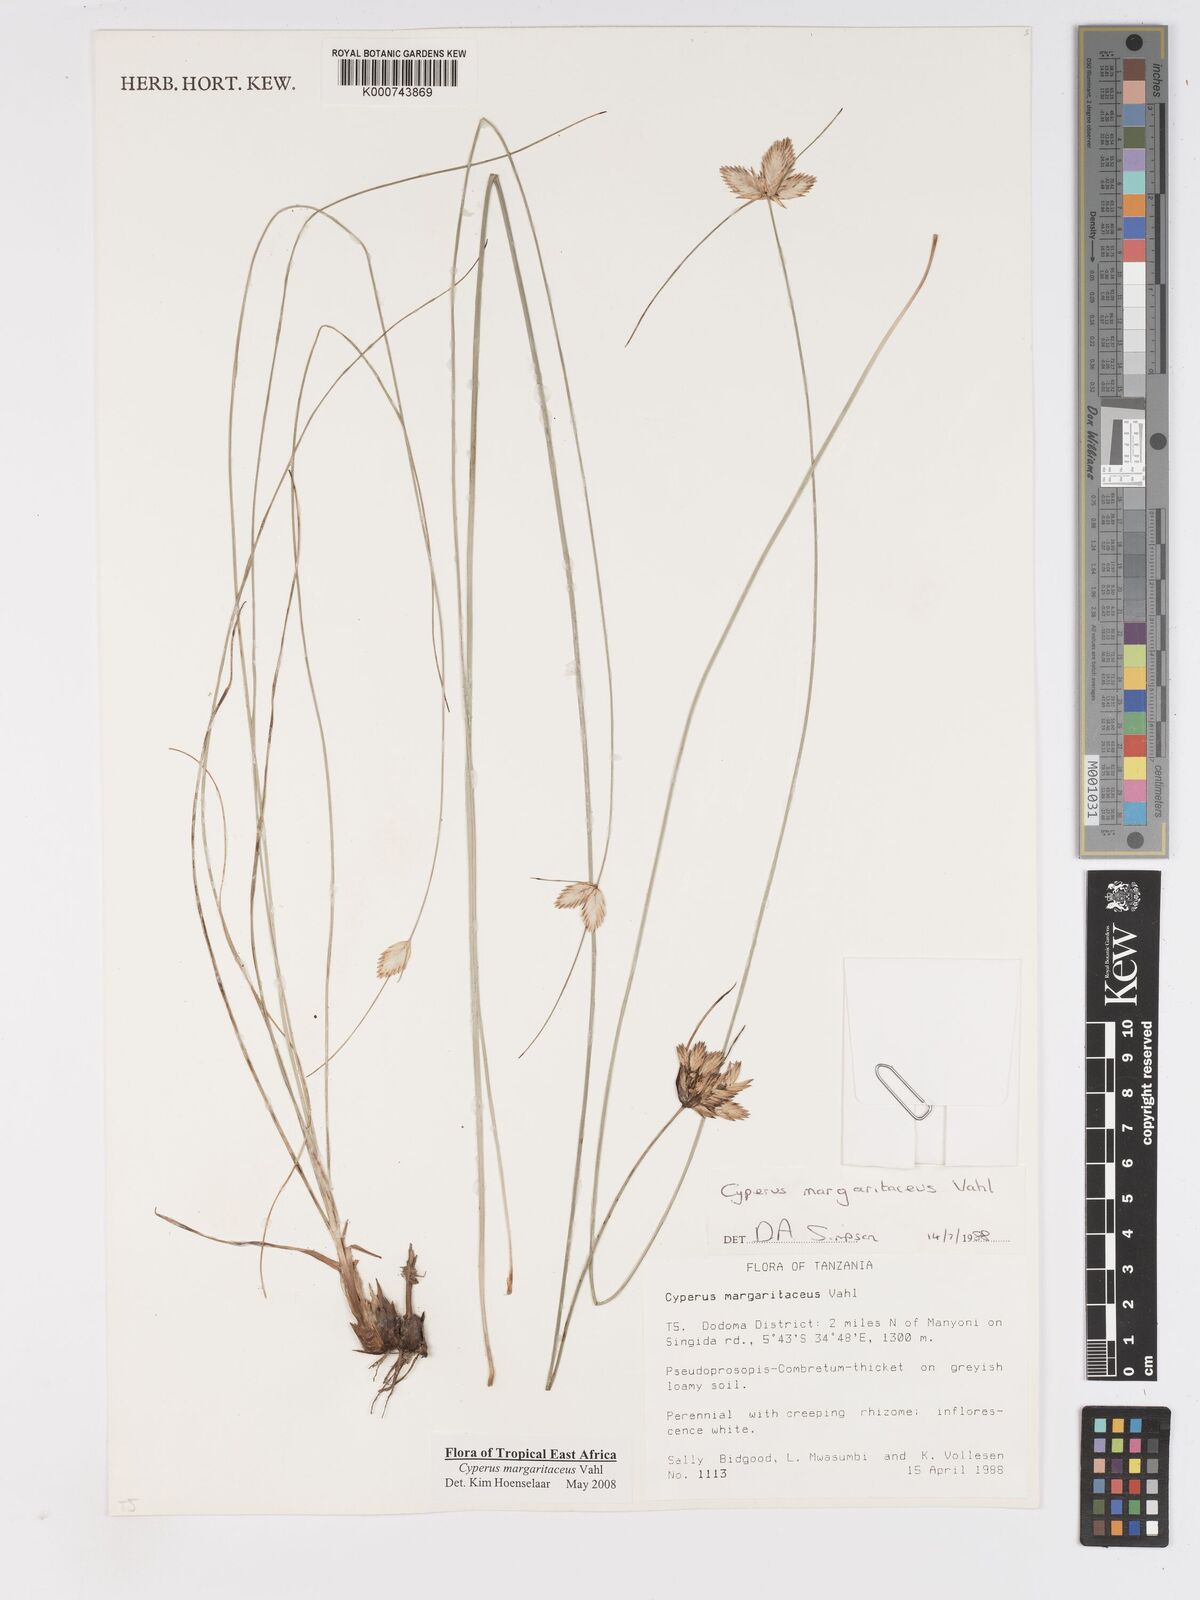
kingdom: Plantae
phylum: Tracheophyta
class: Liliopsida
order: Poales
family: Cyperaceae
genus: Cyperus
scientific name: Cyperus margaritaceus
